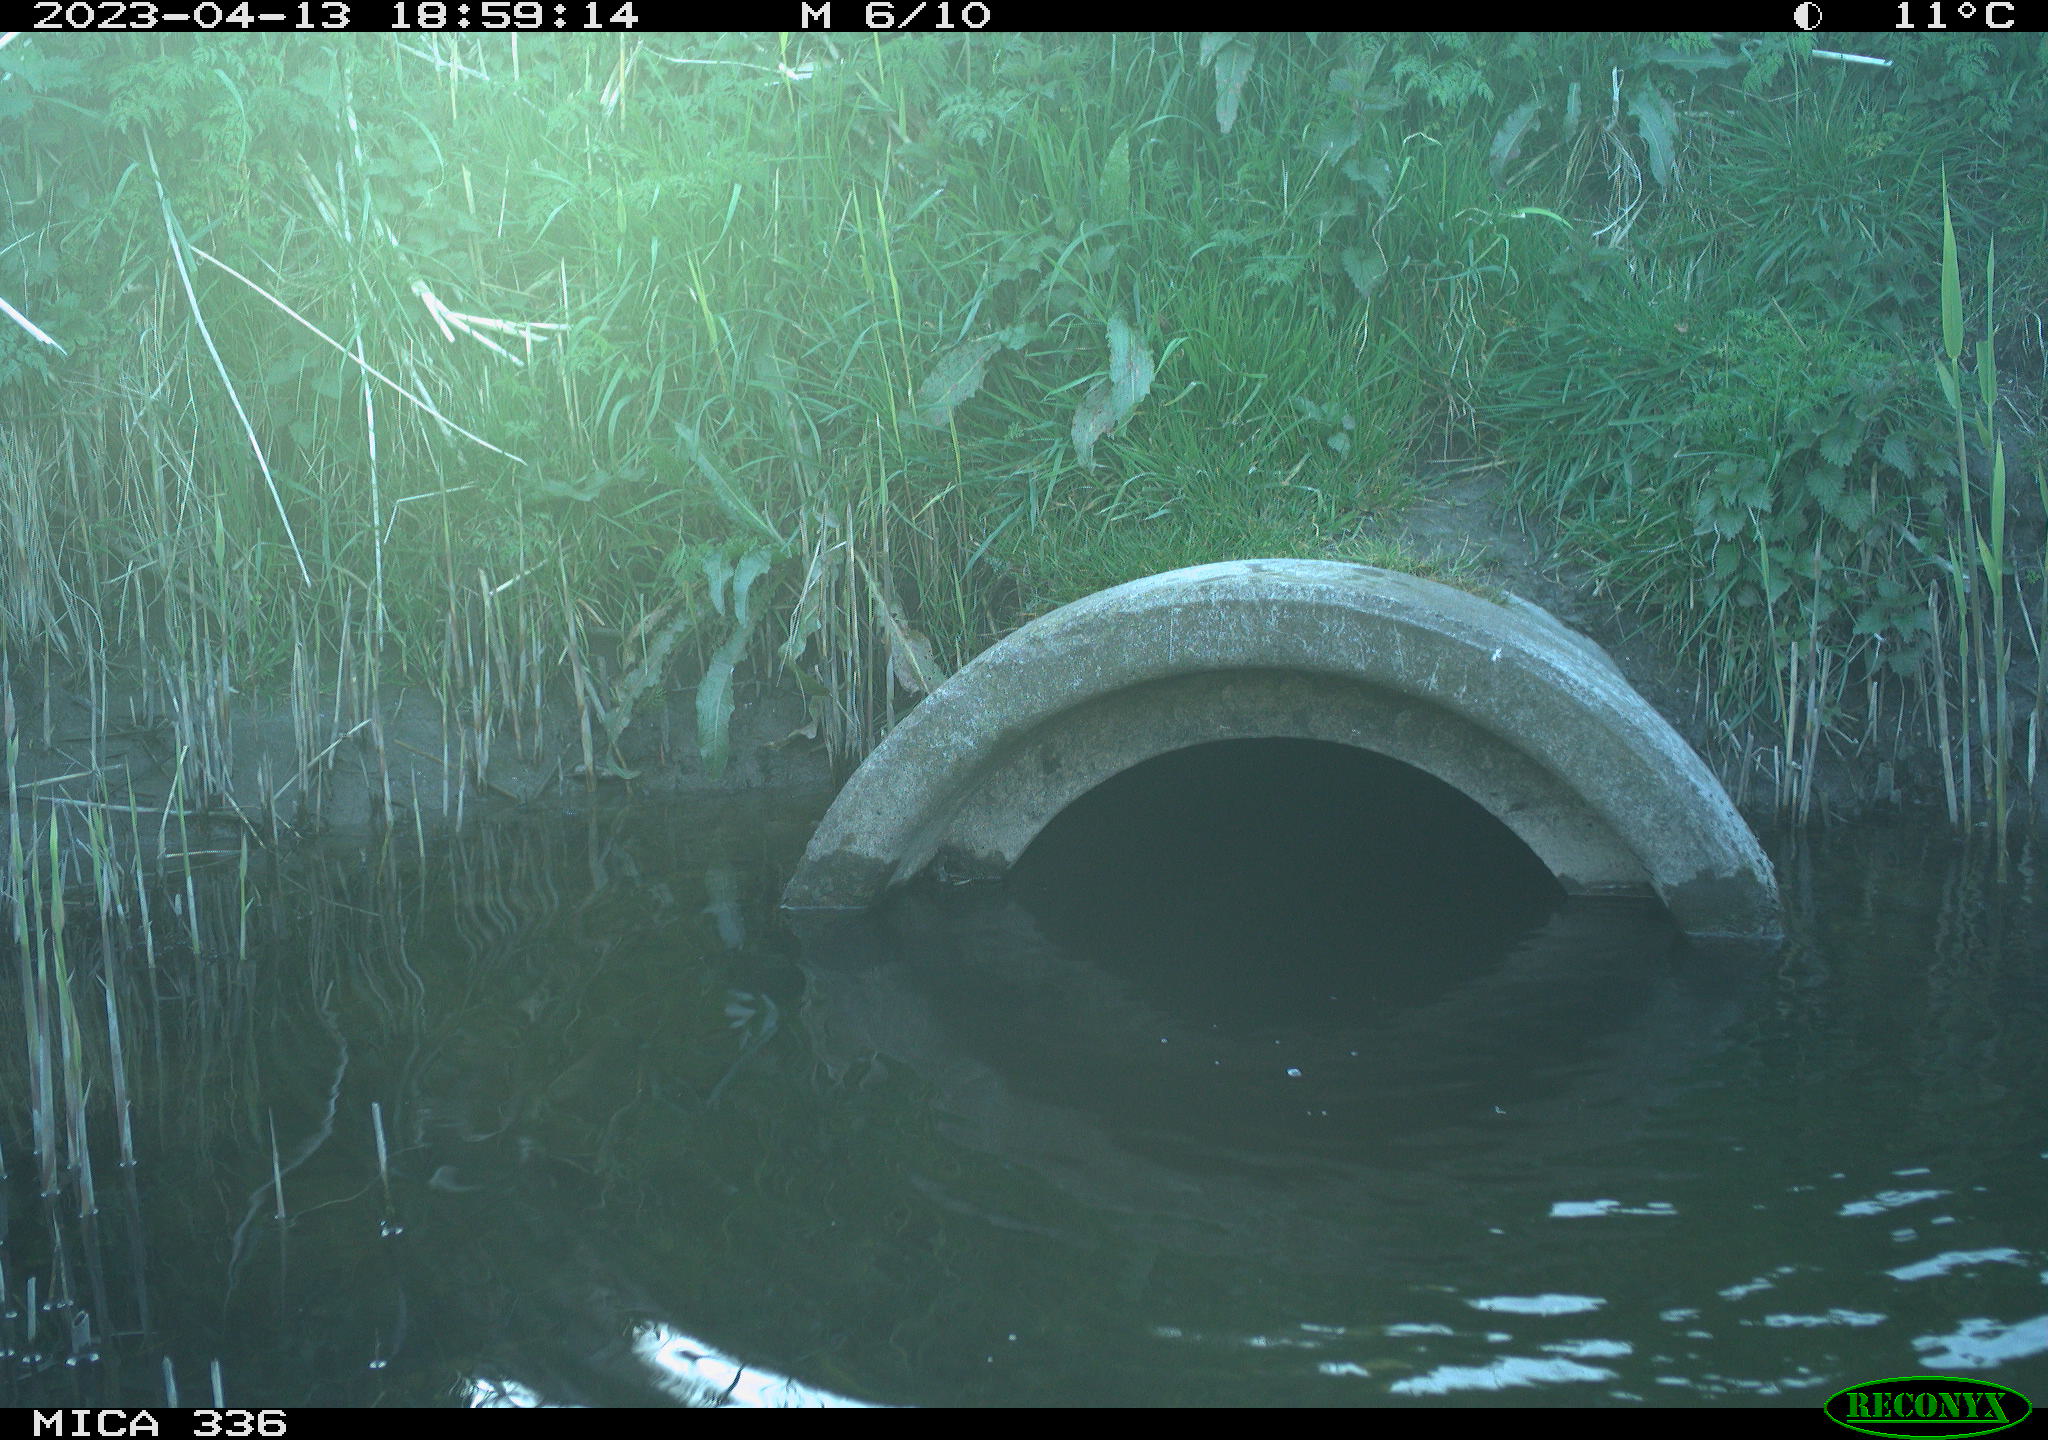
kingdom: Animalia
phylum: Chordata
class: Aves
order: Pelecaniformes
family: Ardeidae
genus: Ardea
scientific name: Ardea cinerea
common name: Grey heron
